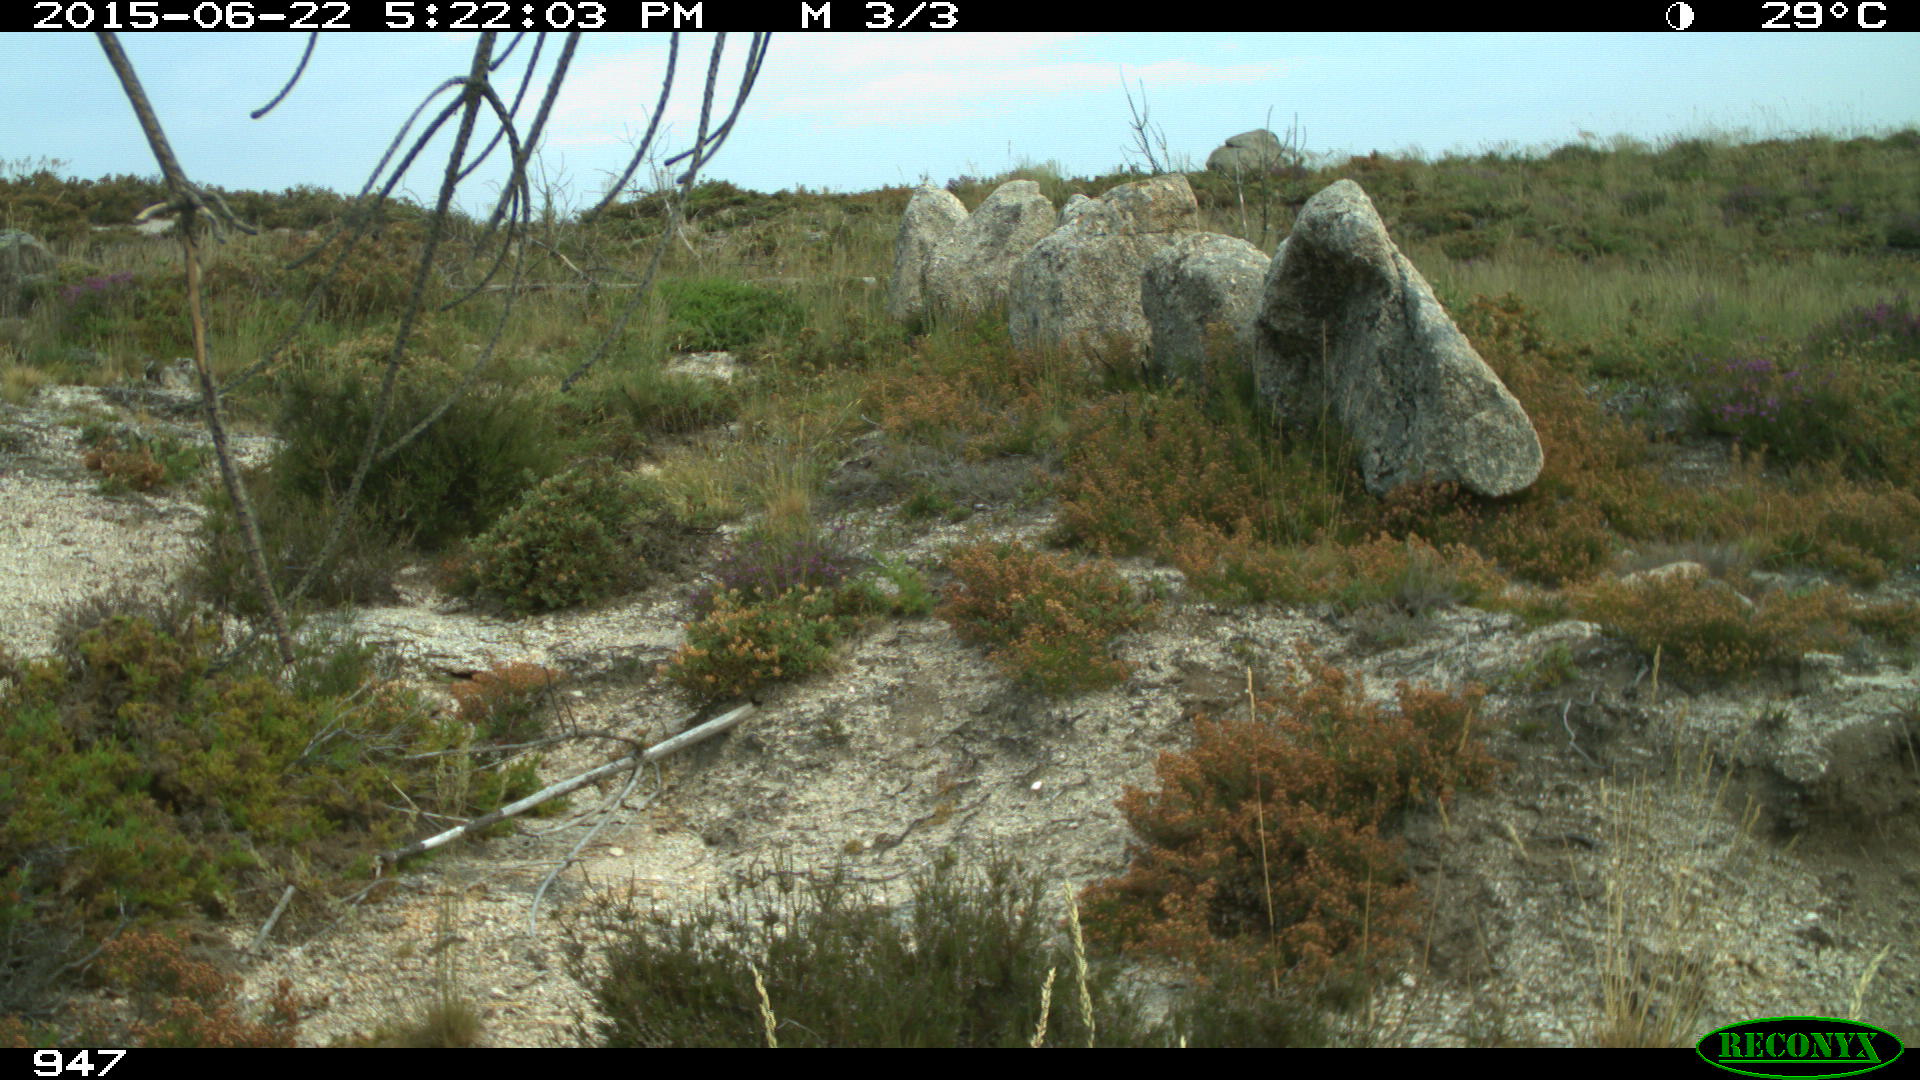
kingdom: Animalia
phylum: Chordata
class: Mammalia
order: Perissodactyla
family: Equidae
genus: Equus
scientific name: Equus caballus
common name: Horse
